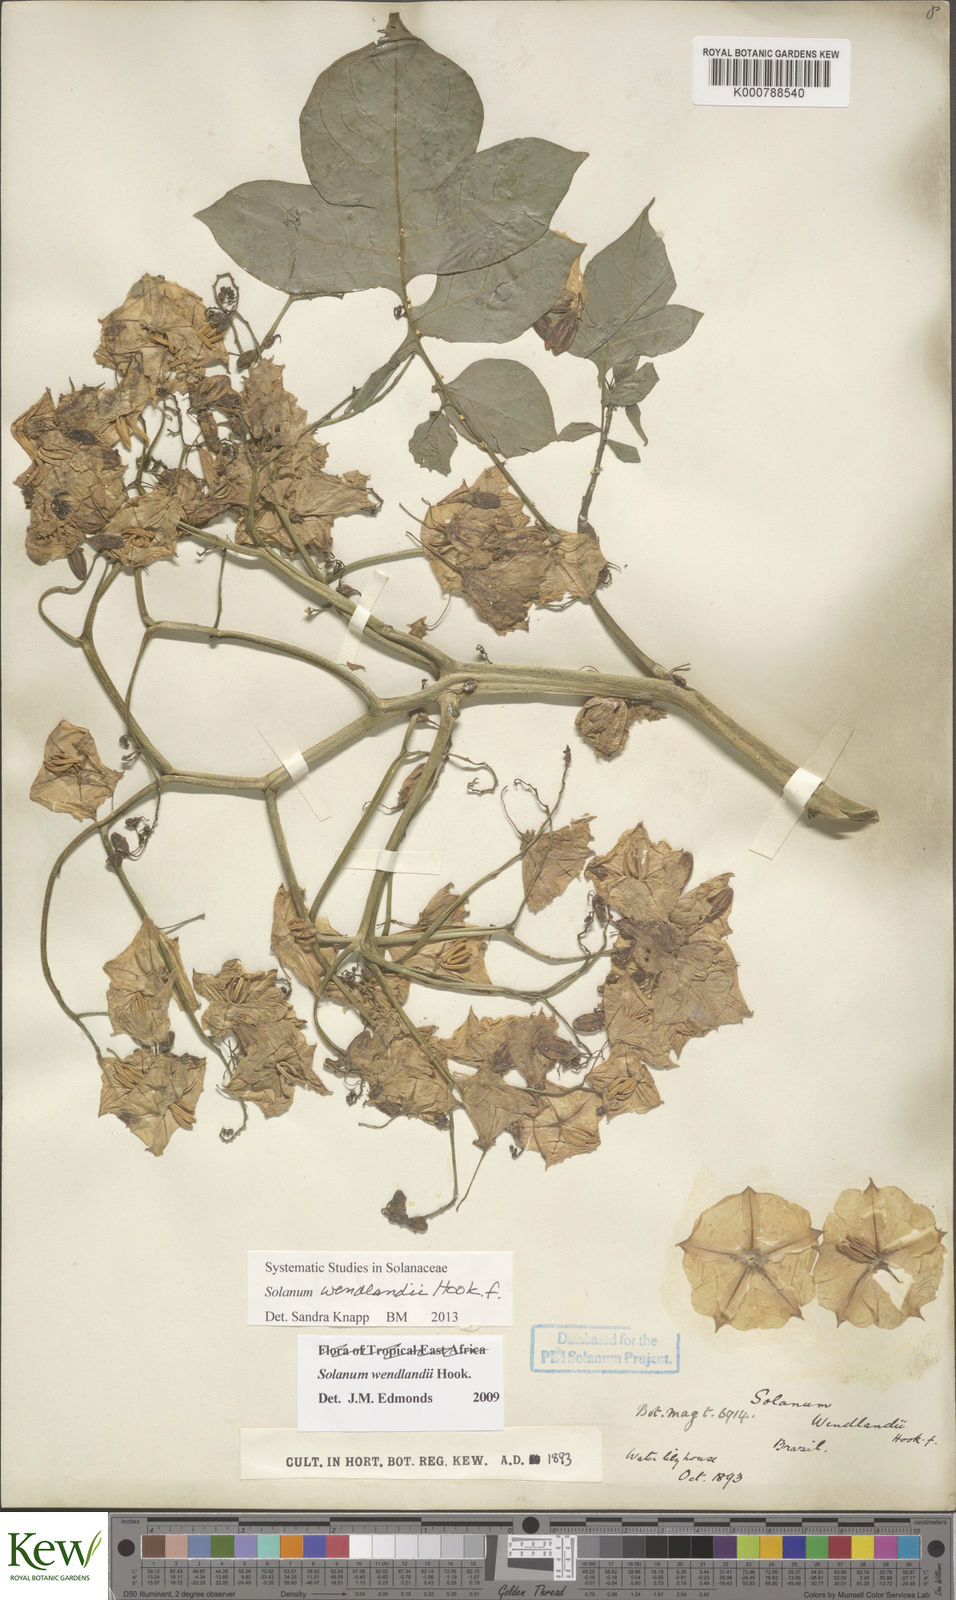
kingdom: Plantae
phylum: Tracheophyta
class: Magnoliopsida
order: Solanales
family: Solanaceae
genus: Solanum
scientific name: Solanum wendlandii
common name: Costa rican nightshade
